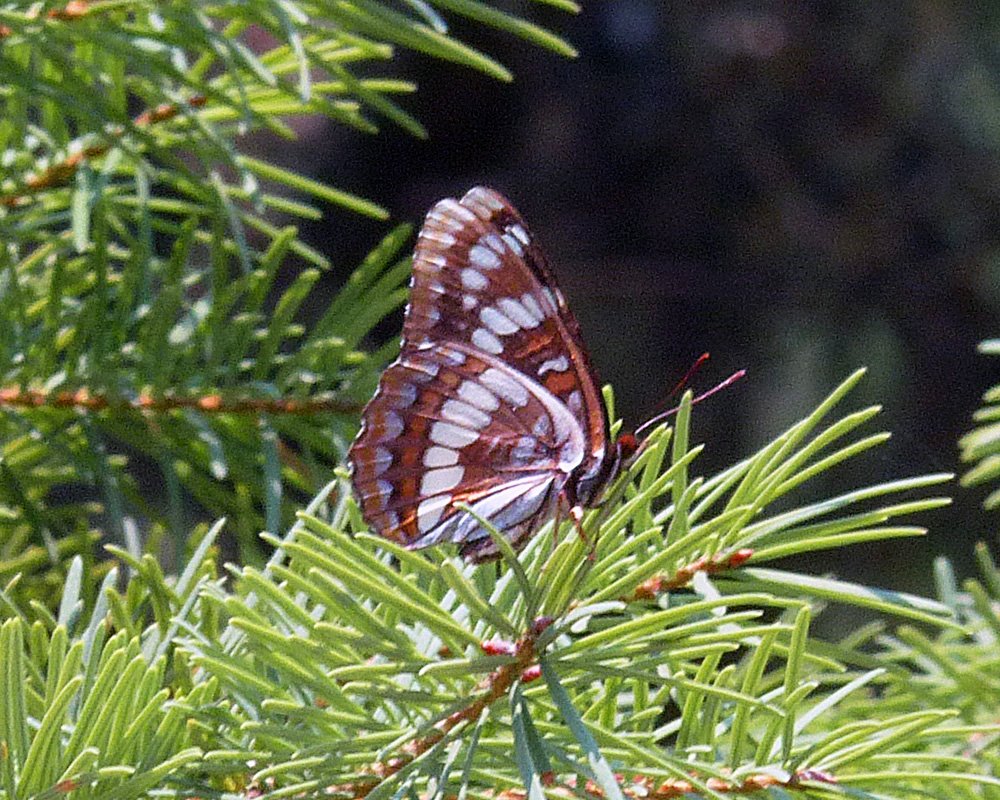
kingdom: Animalia
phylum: Arthropoda
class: Insecta
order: Lepidoptera
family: Nymphalidae
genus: Limenitis
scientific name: Limenitis lorquini
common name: Lorquin's Admiral
